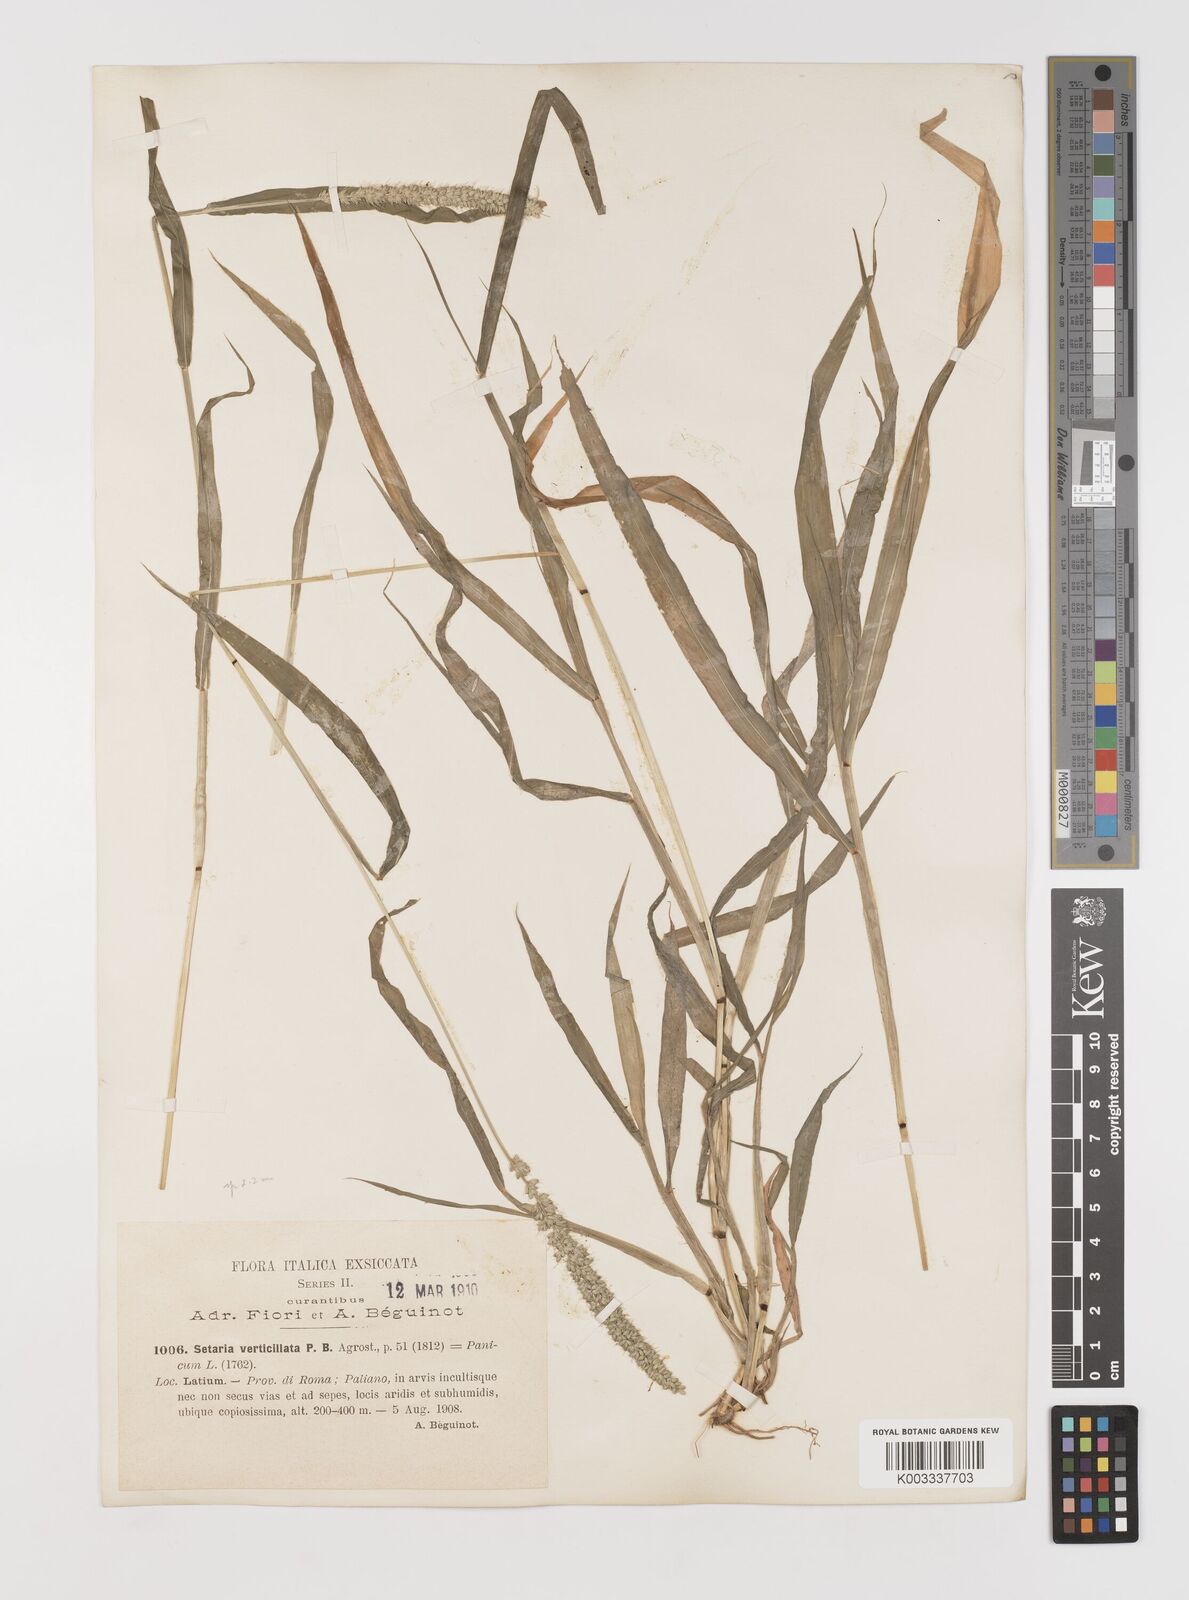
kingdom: Plantae
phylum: Tracheophyta
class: Liliopsida
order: Poales
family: Poaceae
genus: Setaria
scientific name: Setaria verticillata
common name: Hooked bristlegrass
